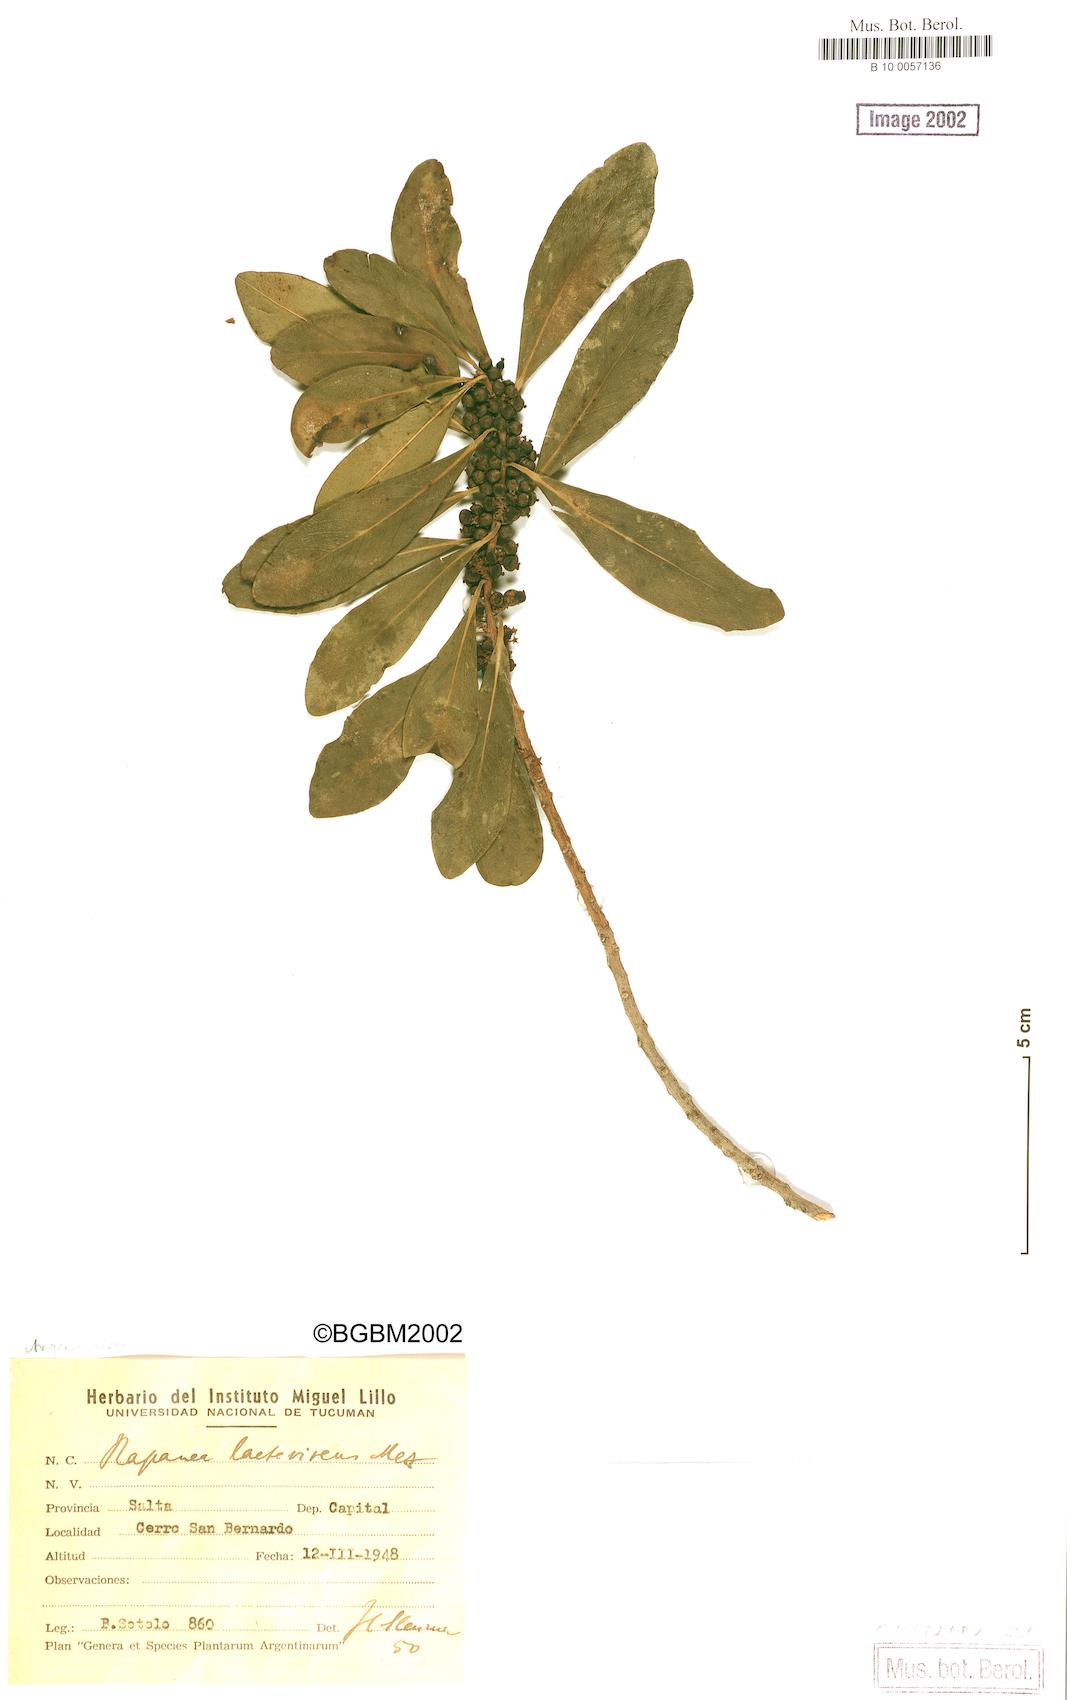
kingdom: Plantae
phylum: Tracheophyta
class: Magnoliopsida
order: Ericales
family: Primulaceae
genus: Myrsine
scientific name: Myrsine laetevirens
